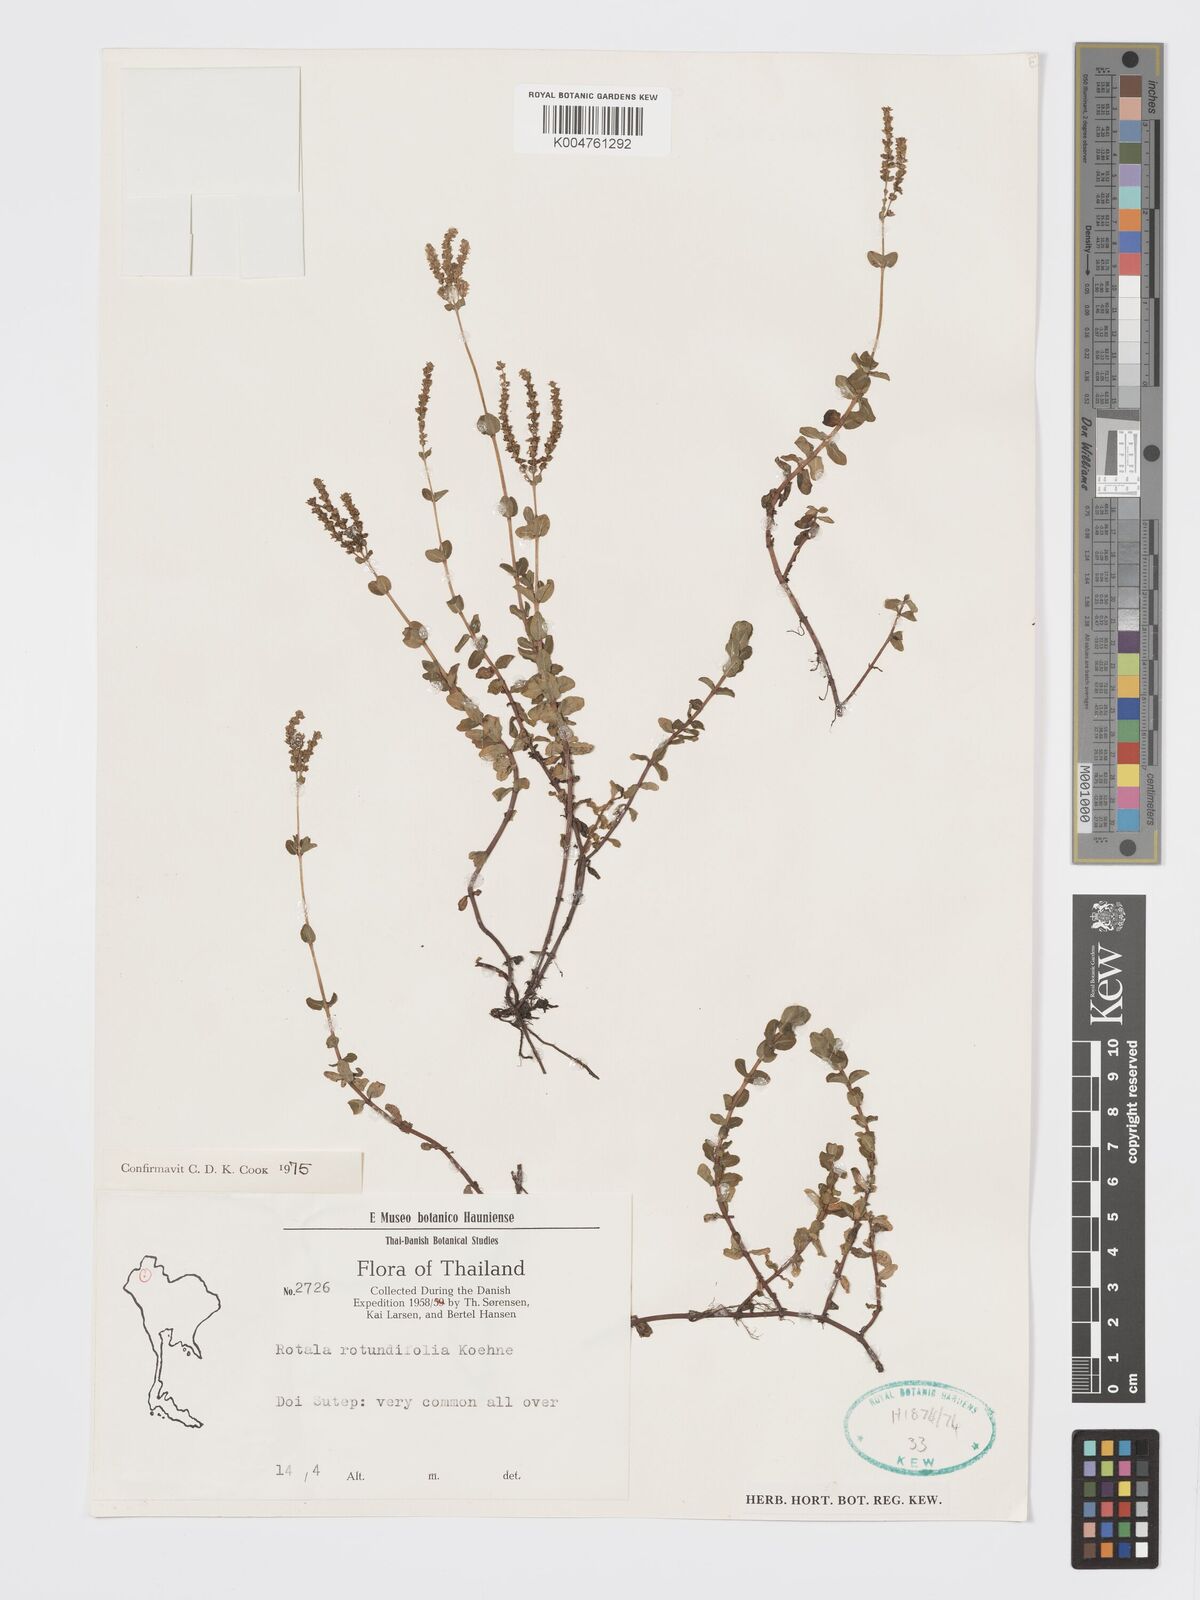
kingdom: Plantae
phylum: Tracheophyta
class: Magnoliopsida
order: Myrtales
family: Lythraceae
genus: Rotala
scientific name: Rotala rotundifolia
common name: Roundleaf toothcup
